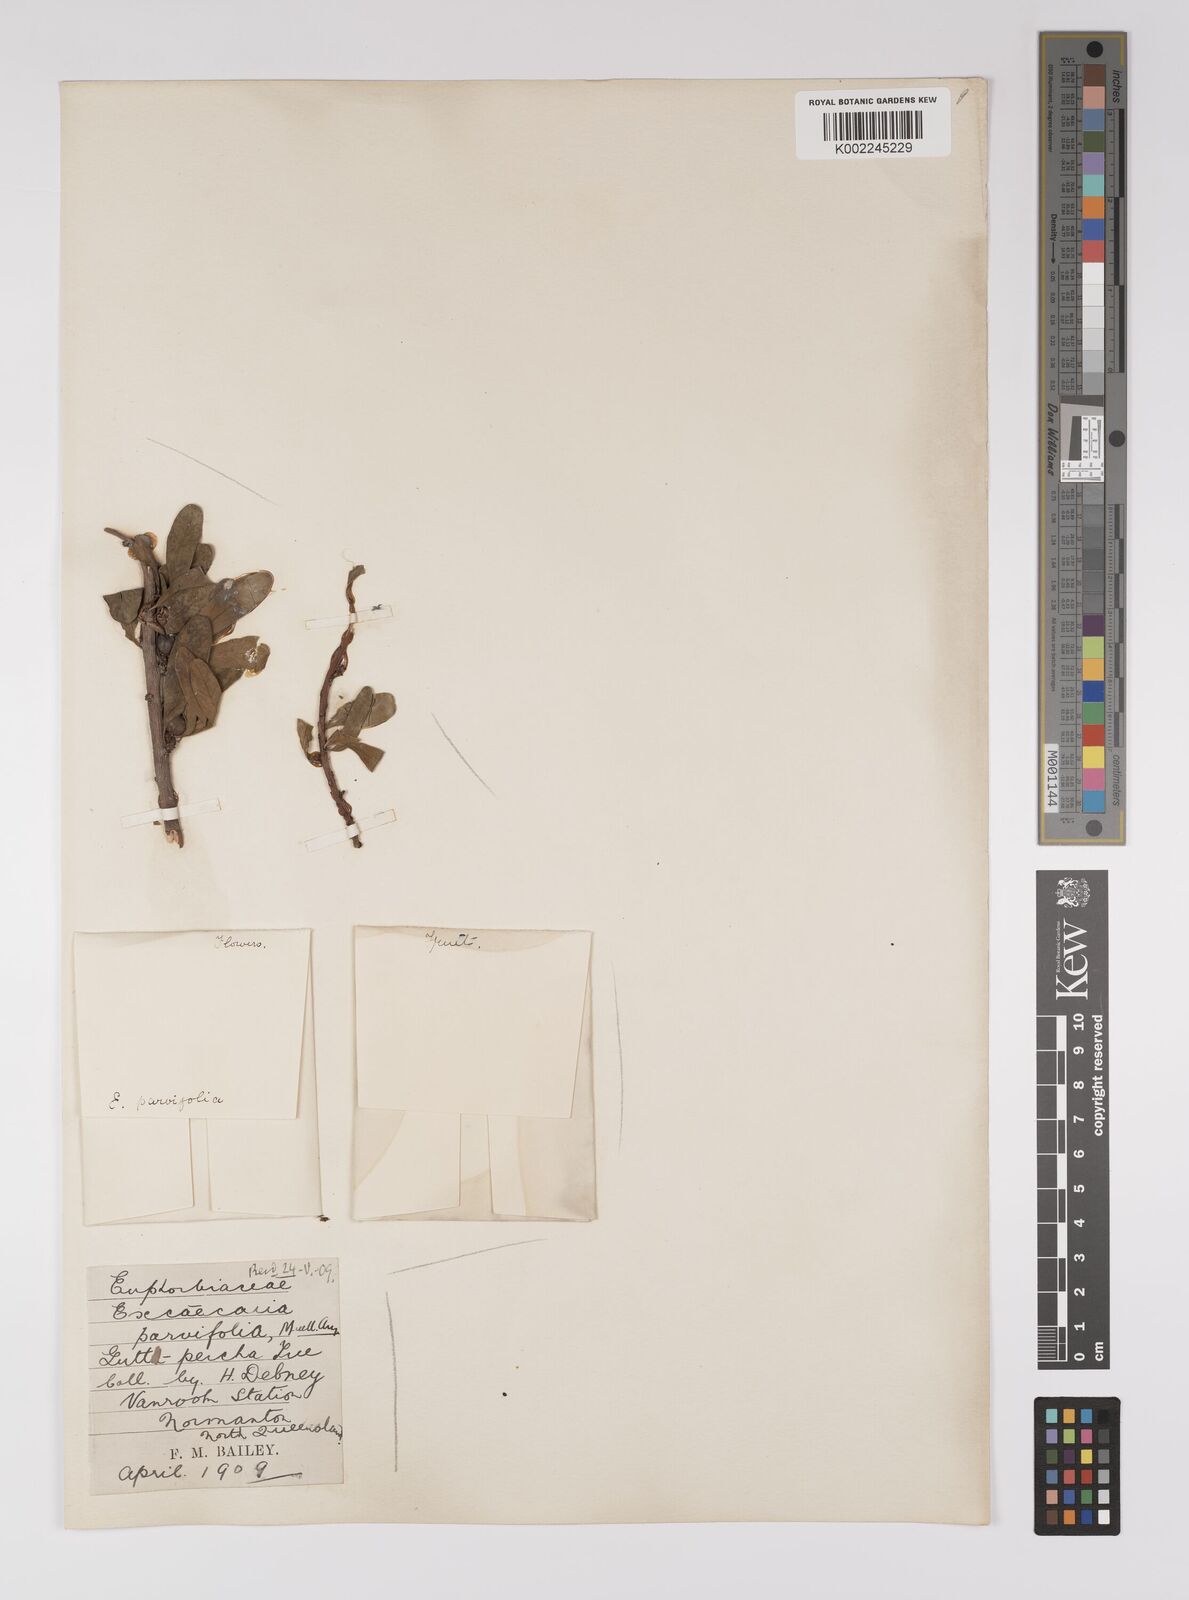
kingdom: Plantae
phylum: Tracheophyta
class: Magnoliopsida
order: Malpighiales
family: Euphorbiaceae
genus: Excoecaria
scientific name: Excoecaria parvifolia
